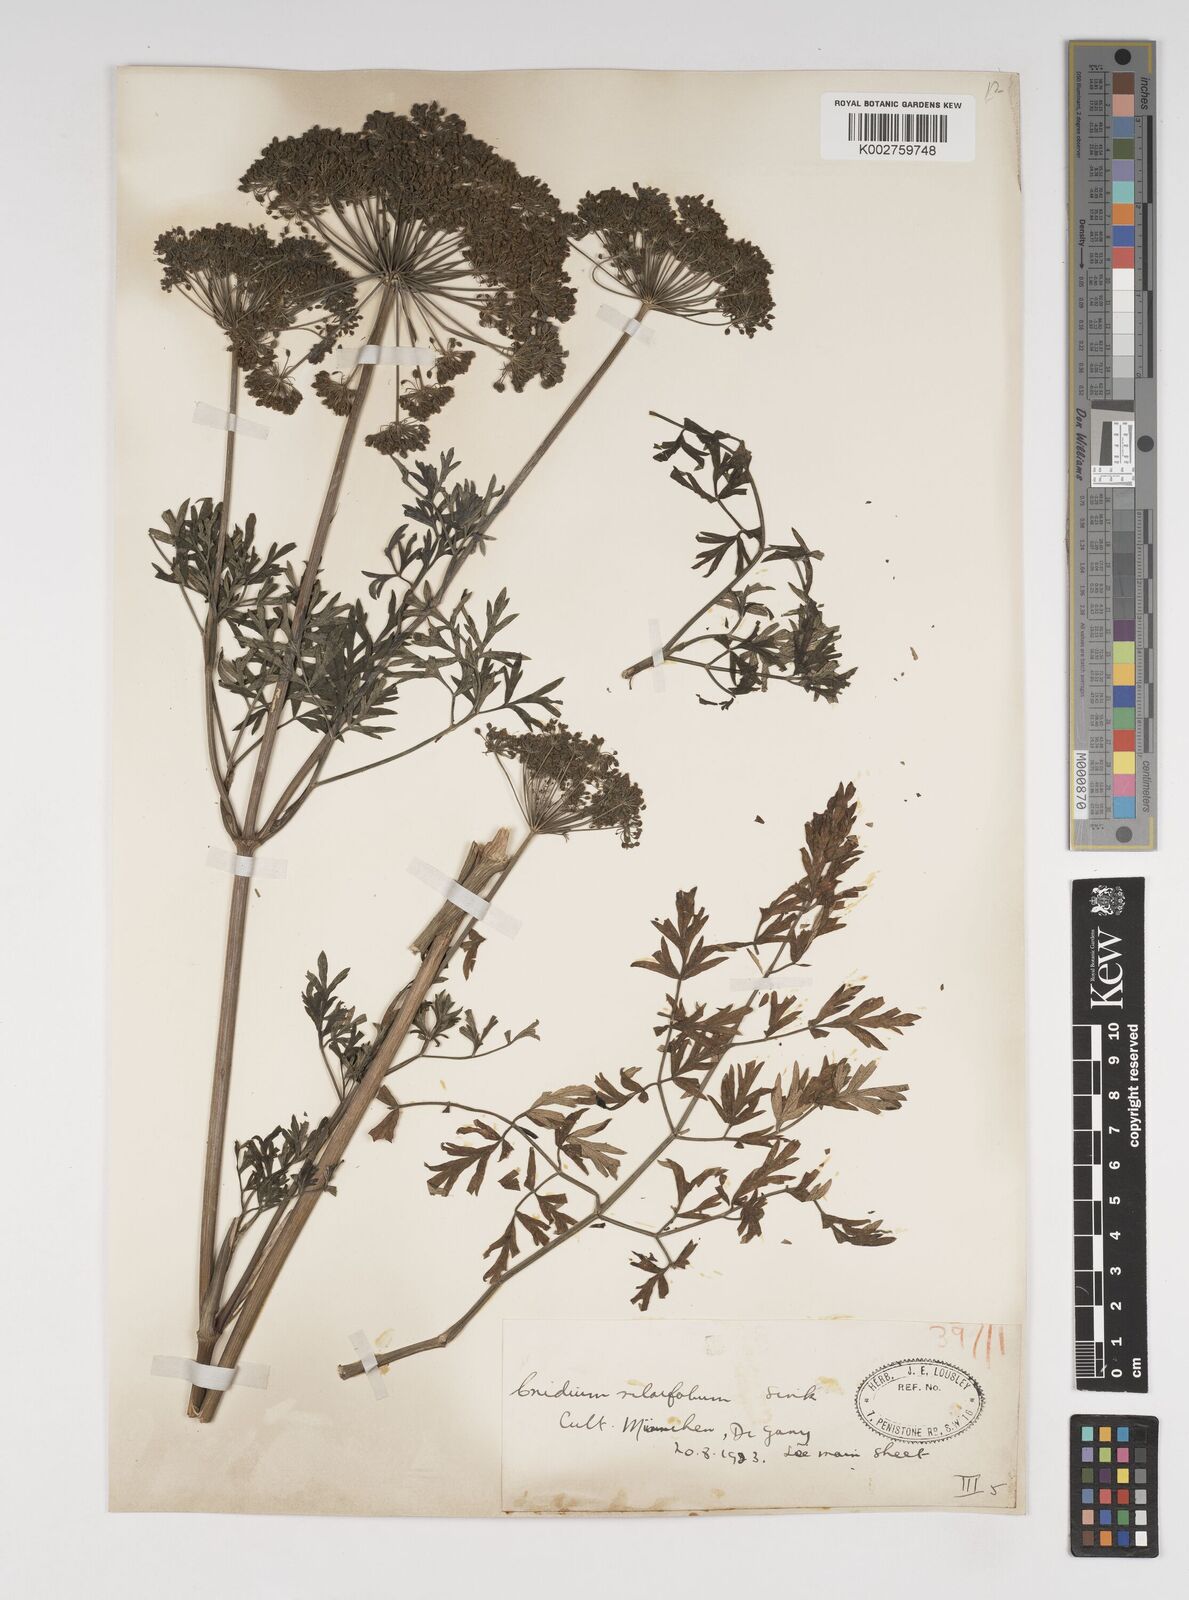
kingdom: Plantae
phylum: Tracheophyta
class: Magnoliopsida
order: Apiales
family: Apiaceae
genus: Katapsuxis
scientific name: Katapsuxis silaifolia
